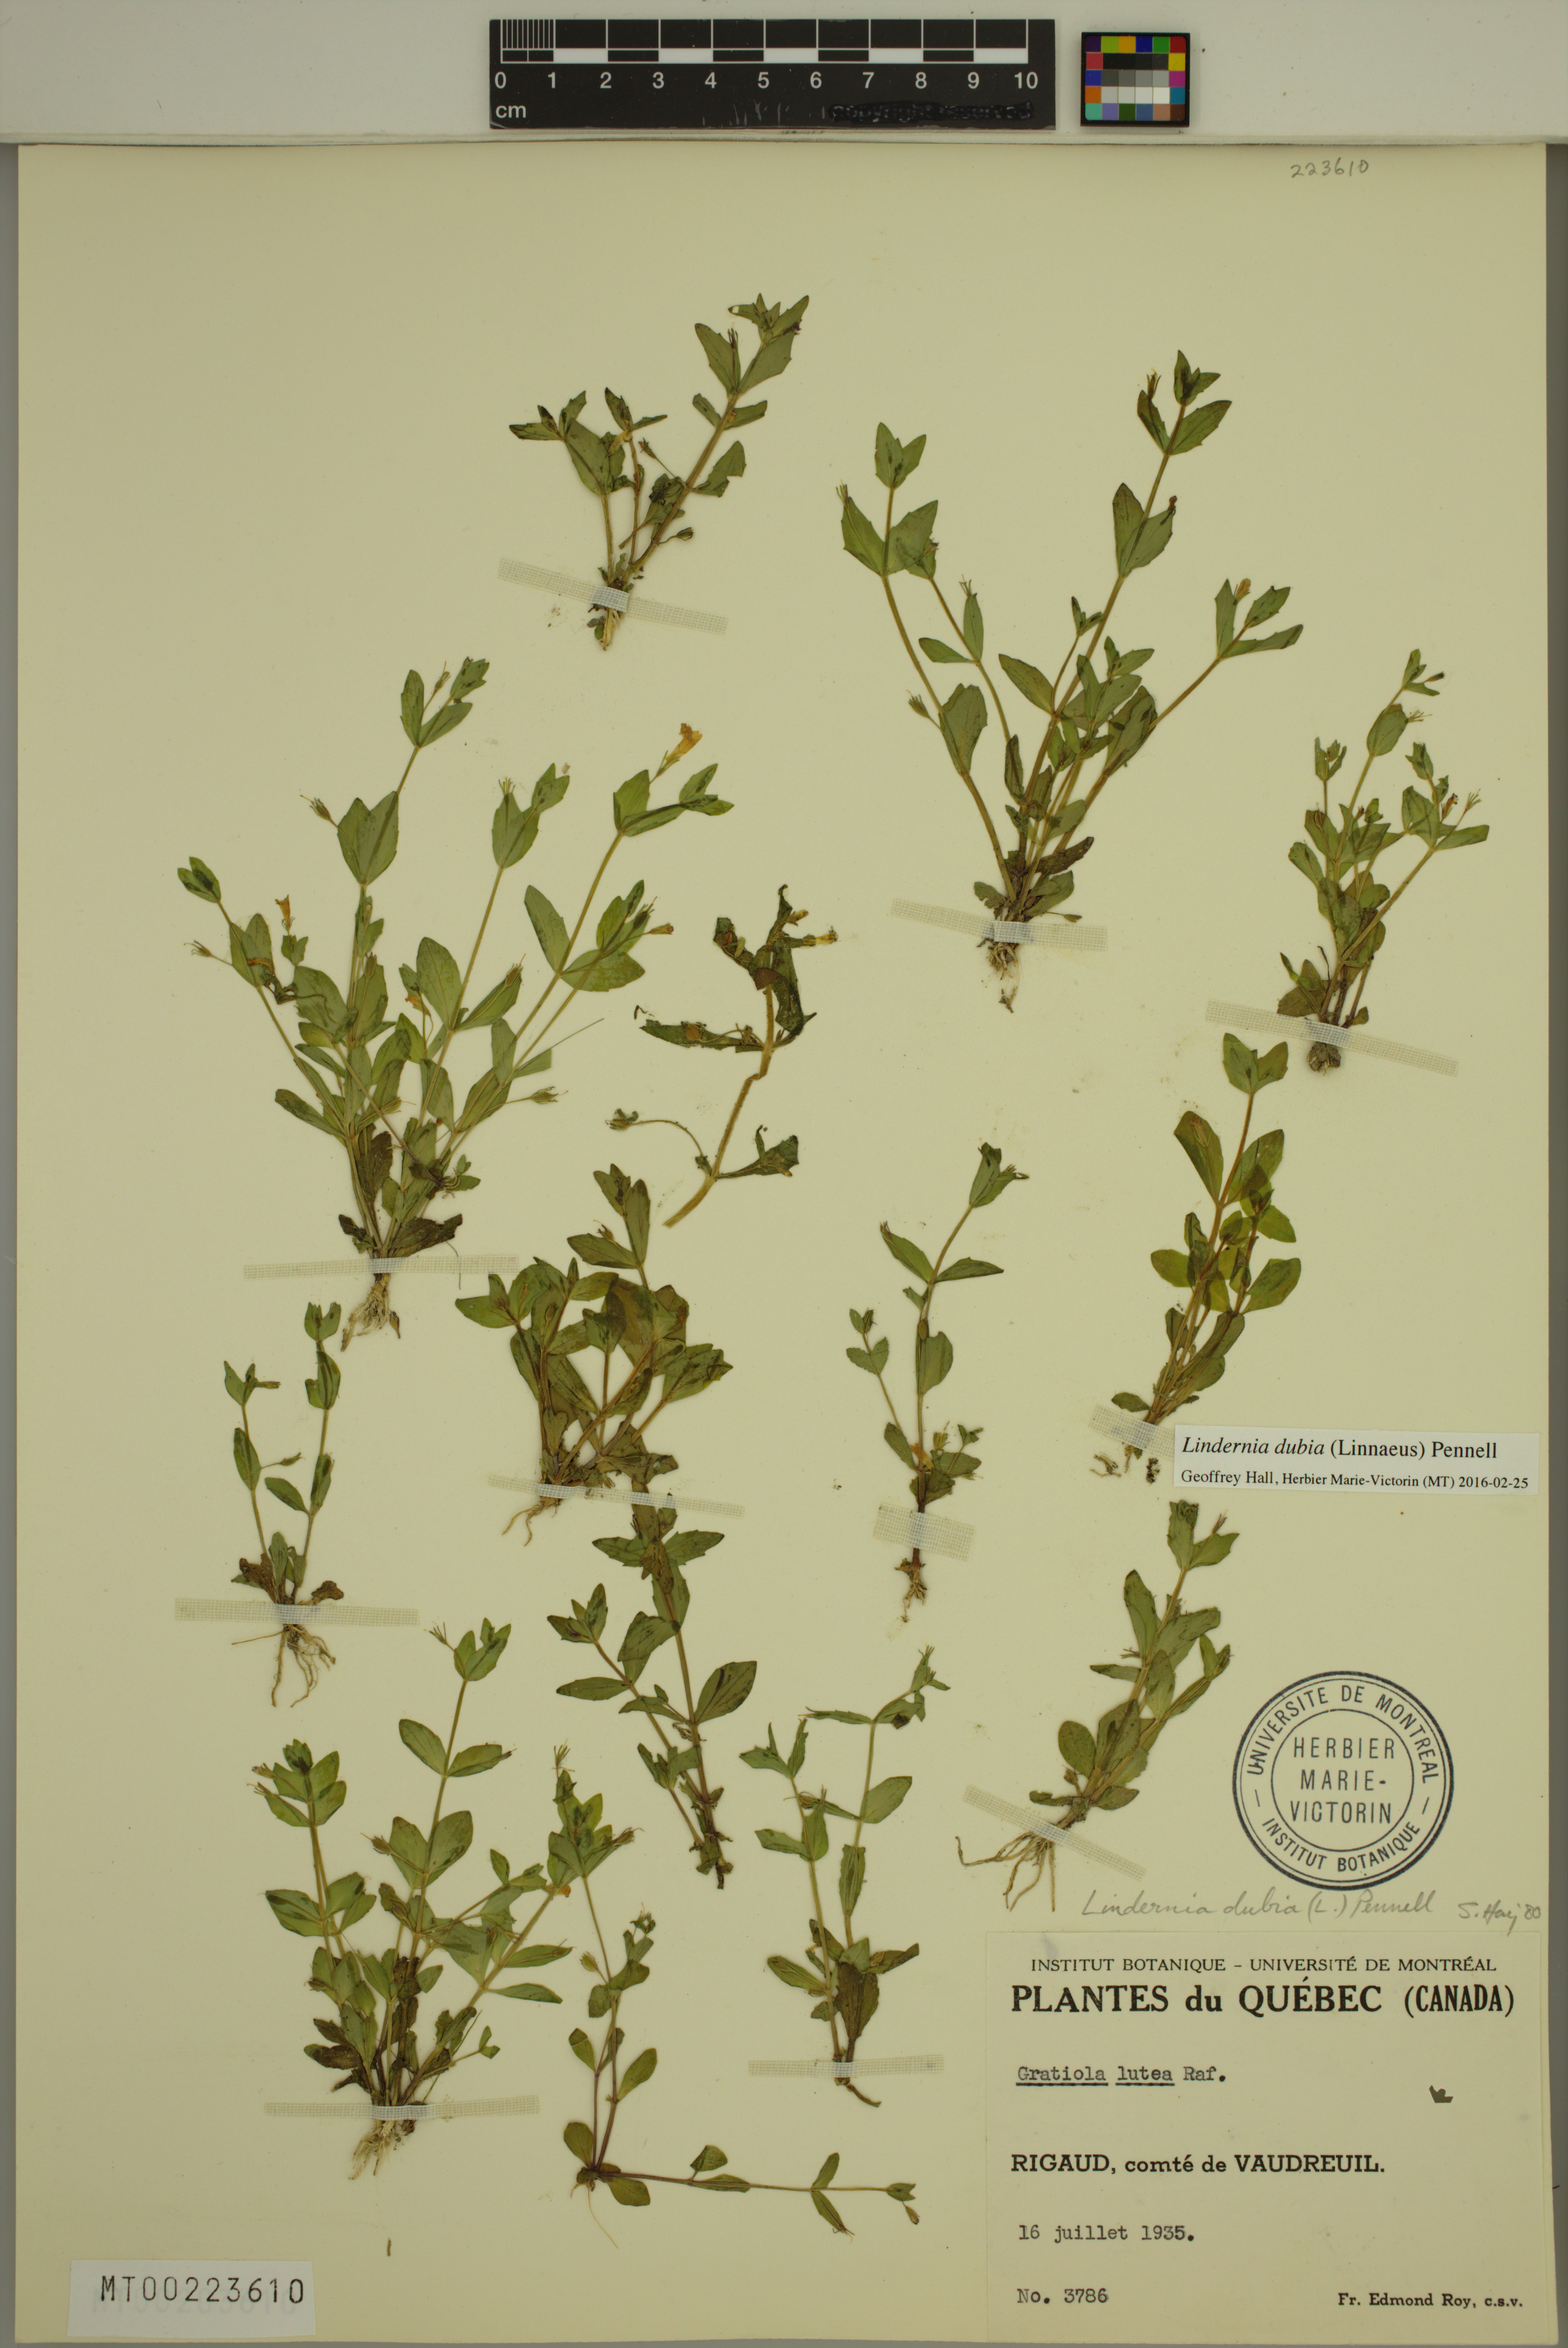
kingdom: Plantae
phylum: Tracheophyta
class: Magnoliopsida
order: Lamiales
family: Linderniaceae
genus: Lindernia
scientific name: Lindernia dubia
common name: Annual false pimpernel
